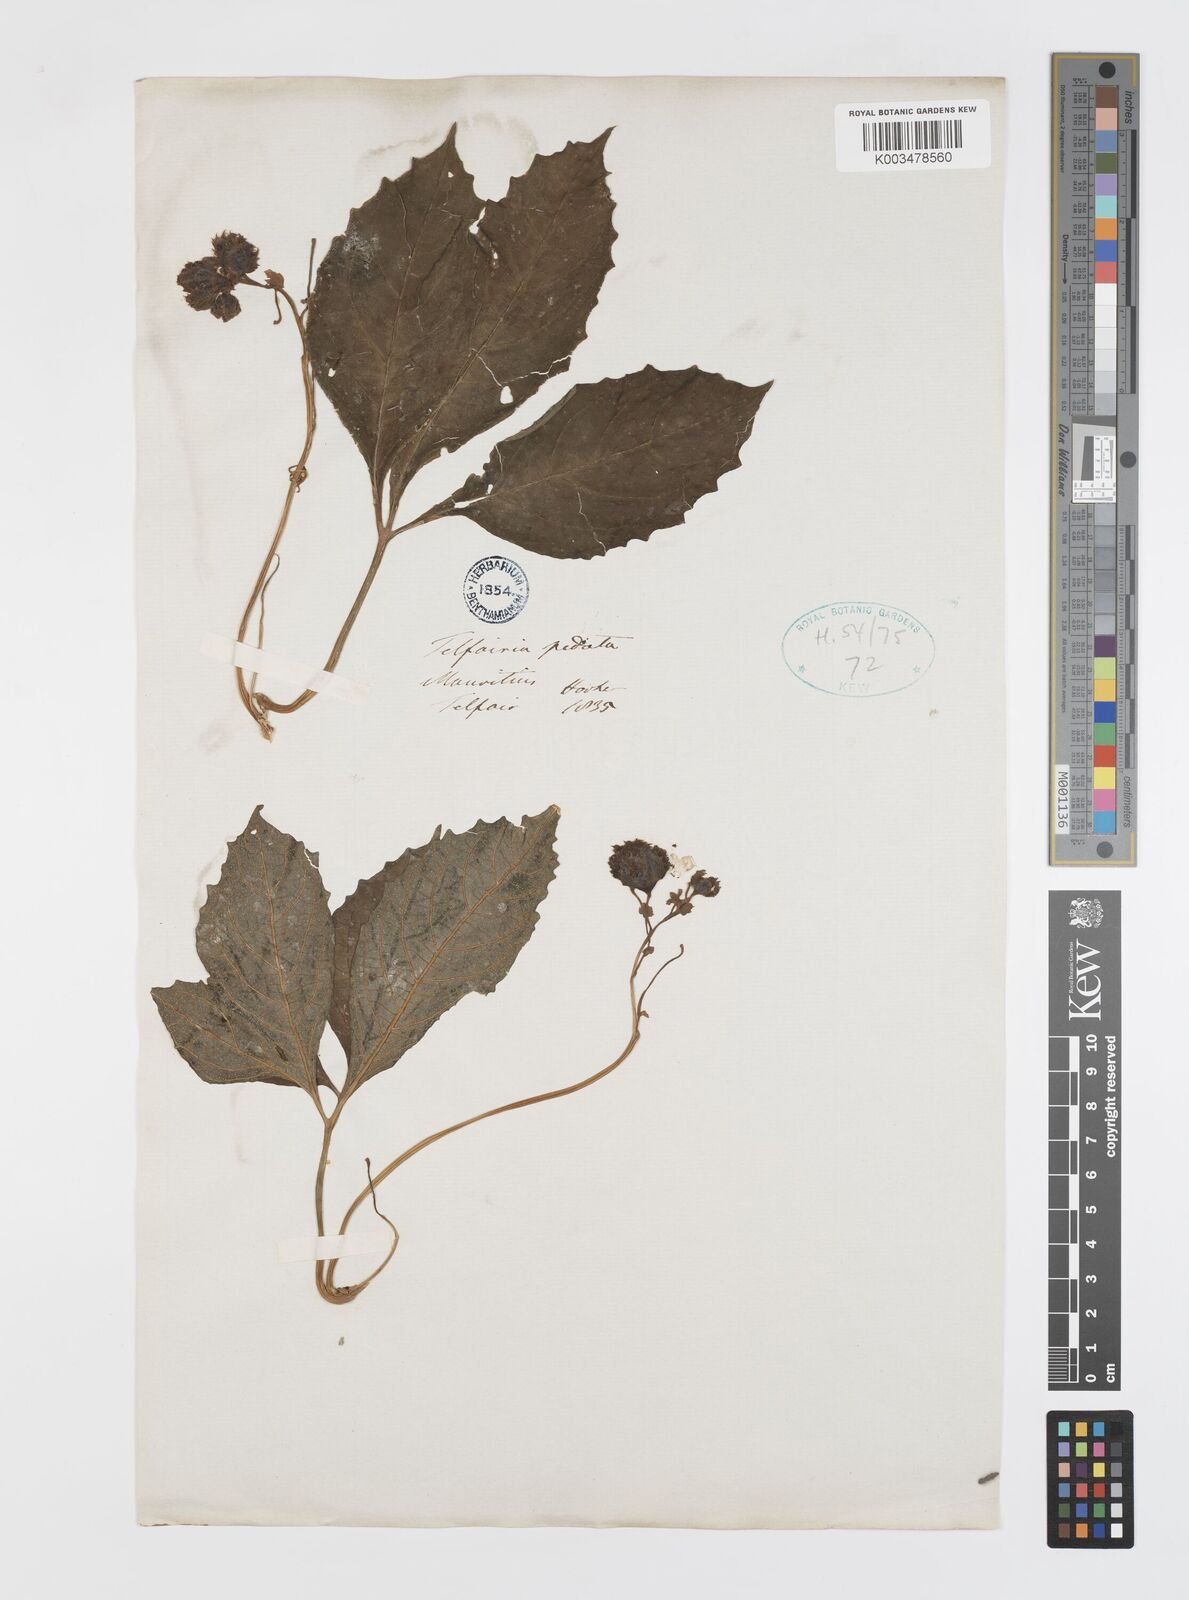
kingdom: Plantae
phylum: Tracheophyta
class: Magnoliopsida
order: Cucurbitales
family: Cucurbitaceae
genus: Telfairia
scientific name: Telfairia pedata
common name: Zanzibar oilvine
